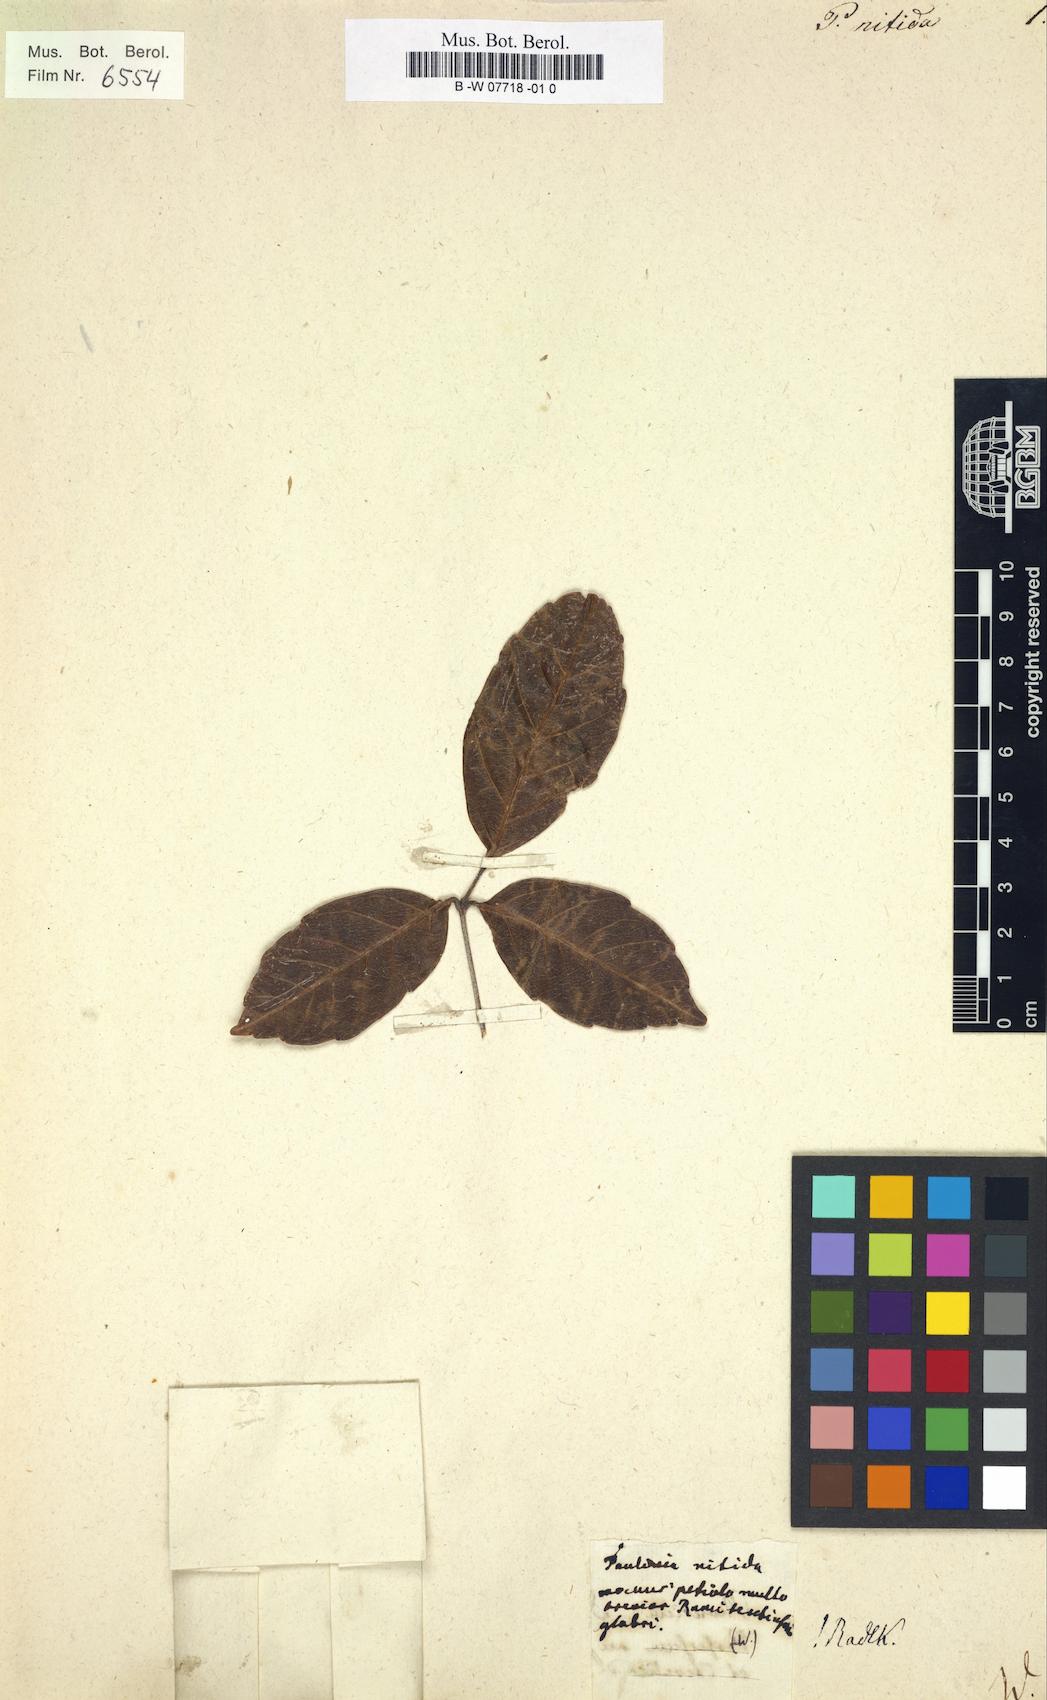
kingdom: Plantae
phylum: Tracheophyta
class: Magnoliopsida
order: Sapindales
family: Sapindaceae
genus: Paullinia
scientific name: Paullinia nitida
